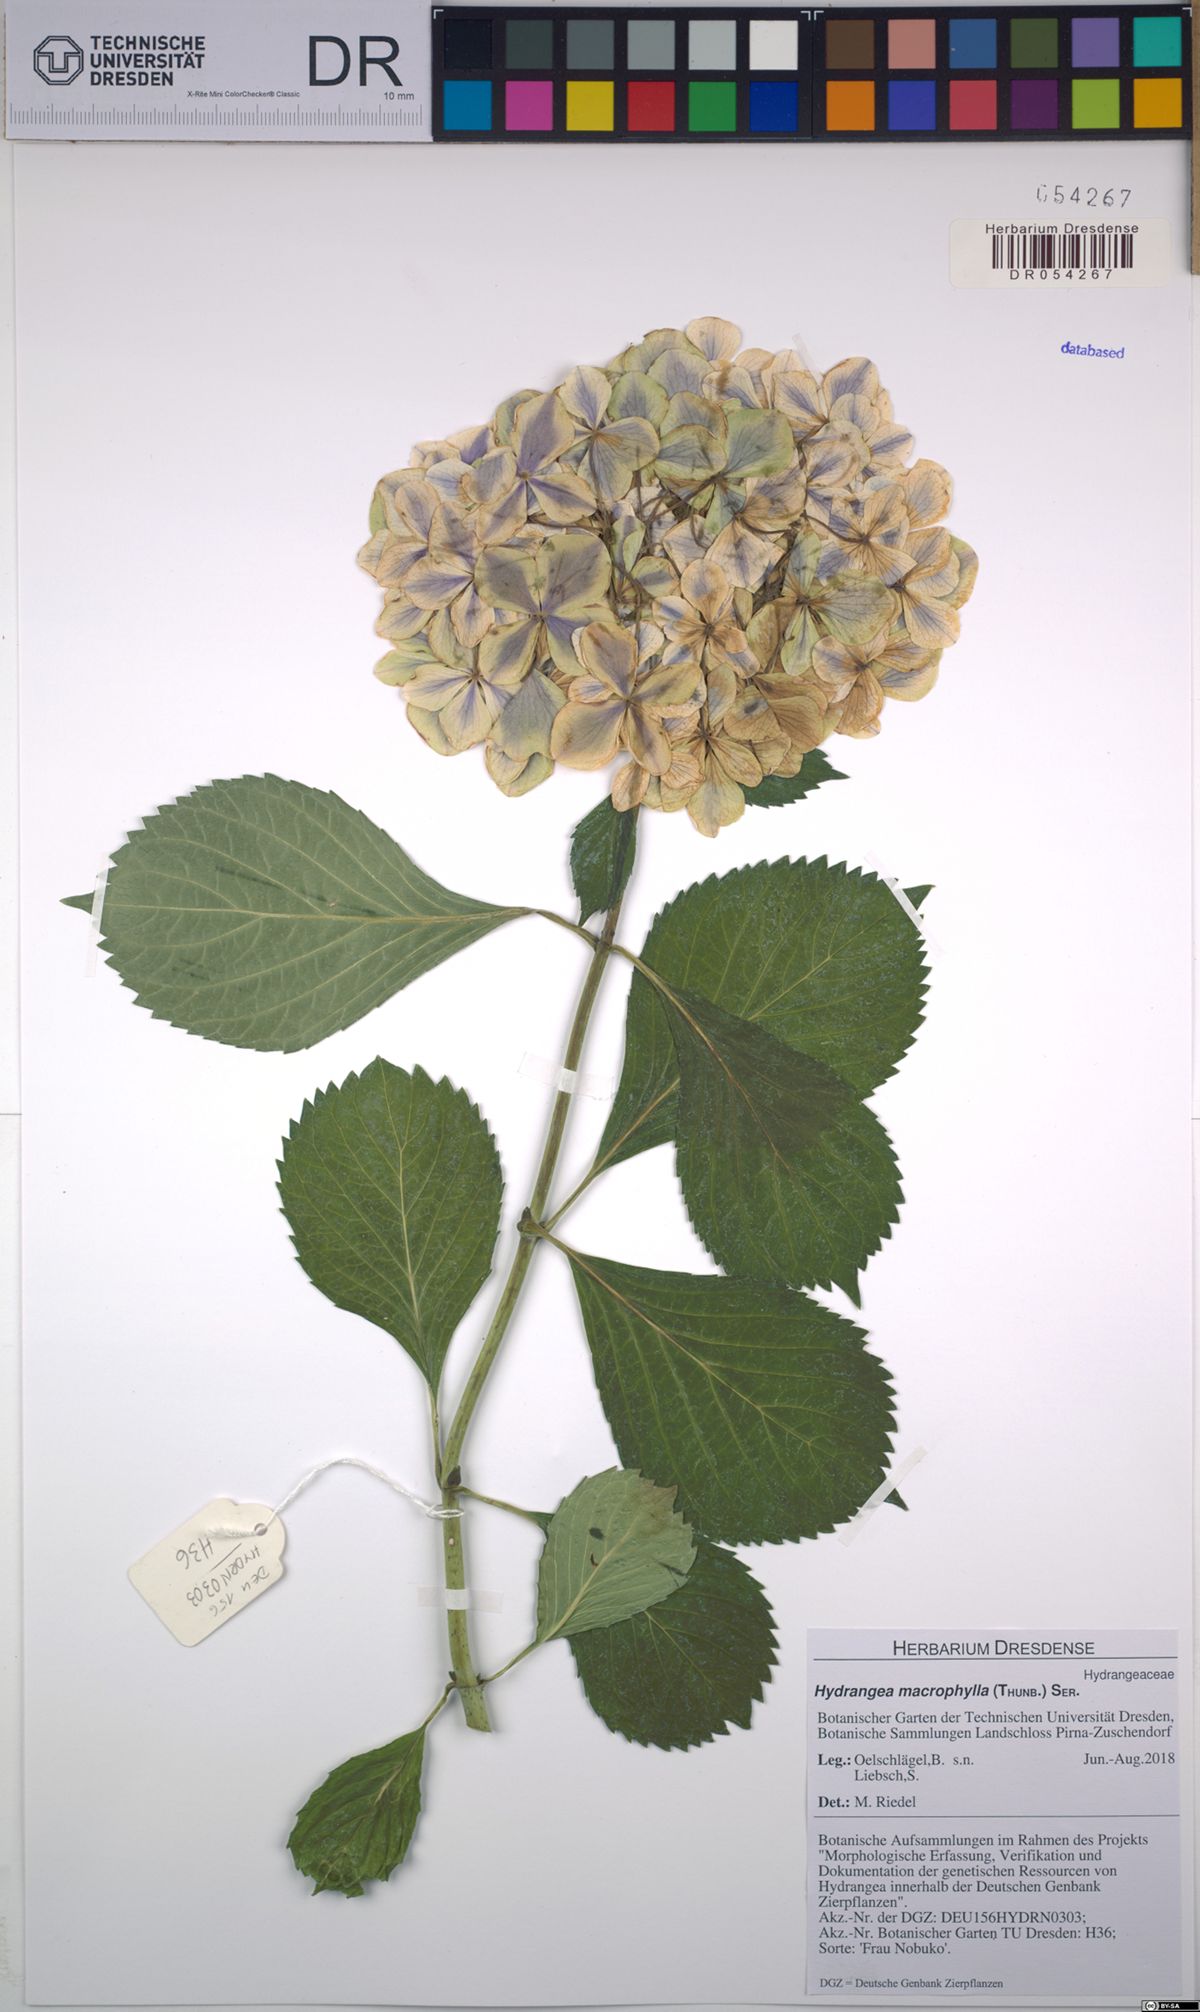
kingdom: Plantae
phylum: Tracheophyta
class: Magnoliopsida
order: Cornales
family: Hydrangeaceae
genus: Hydrangea
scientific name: Hydrangea macrophylla
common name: Hydrangea
